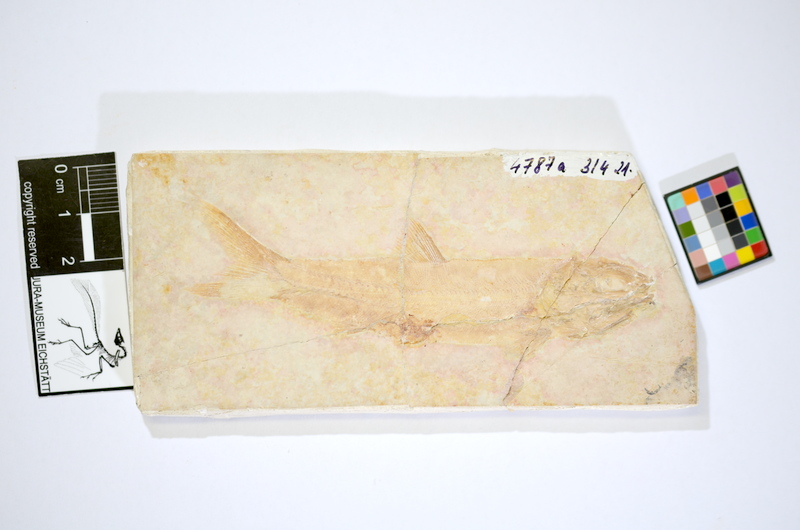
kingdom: Animalia
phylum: Chordata
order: Amiiformes
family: Liodesmidae
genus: Liodesmus
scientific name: Liodesmus
